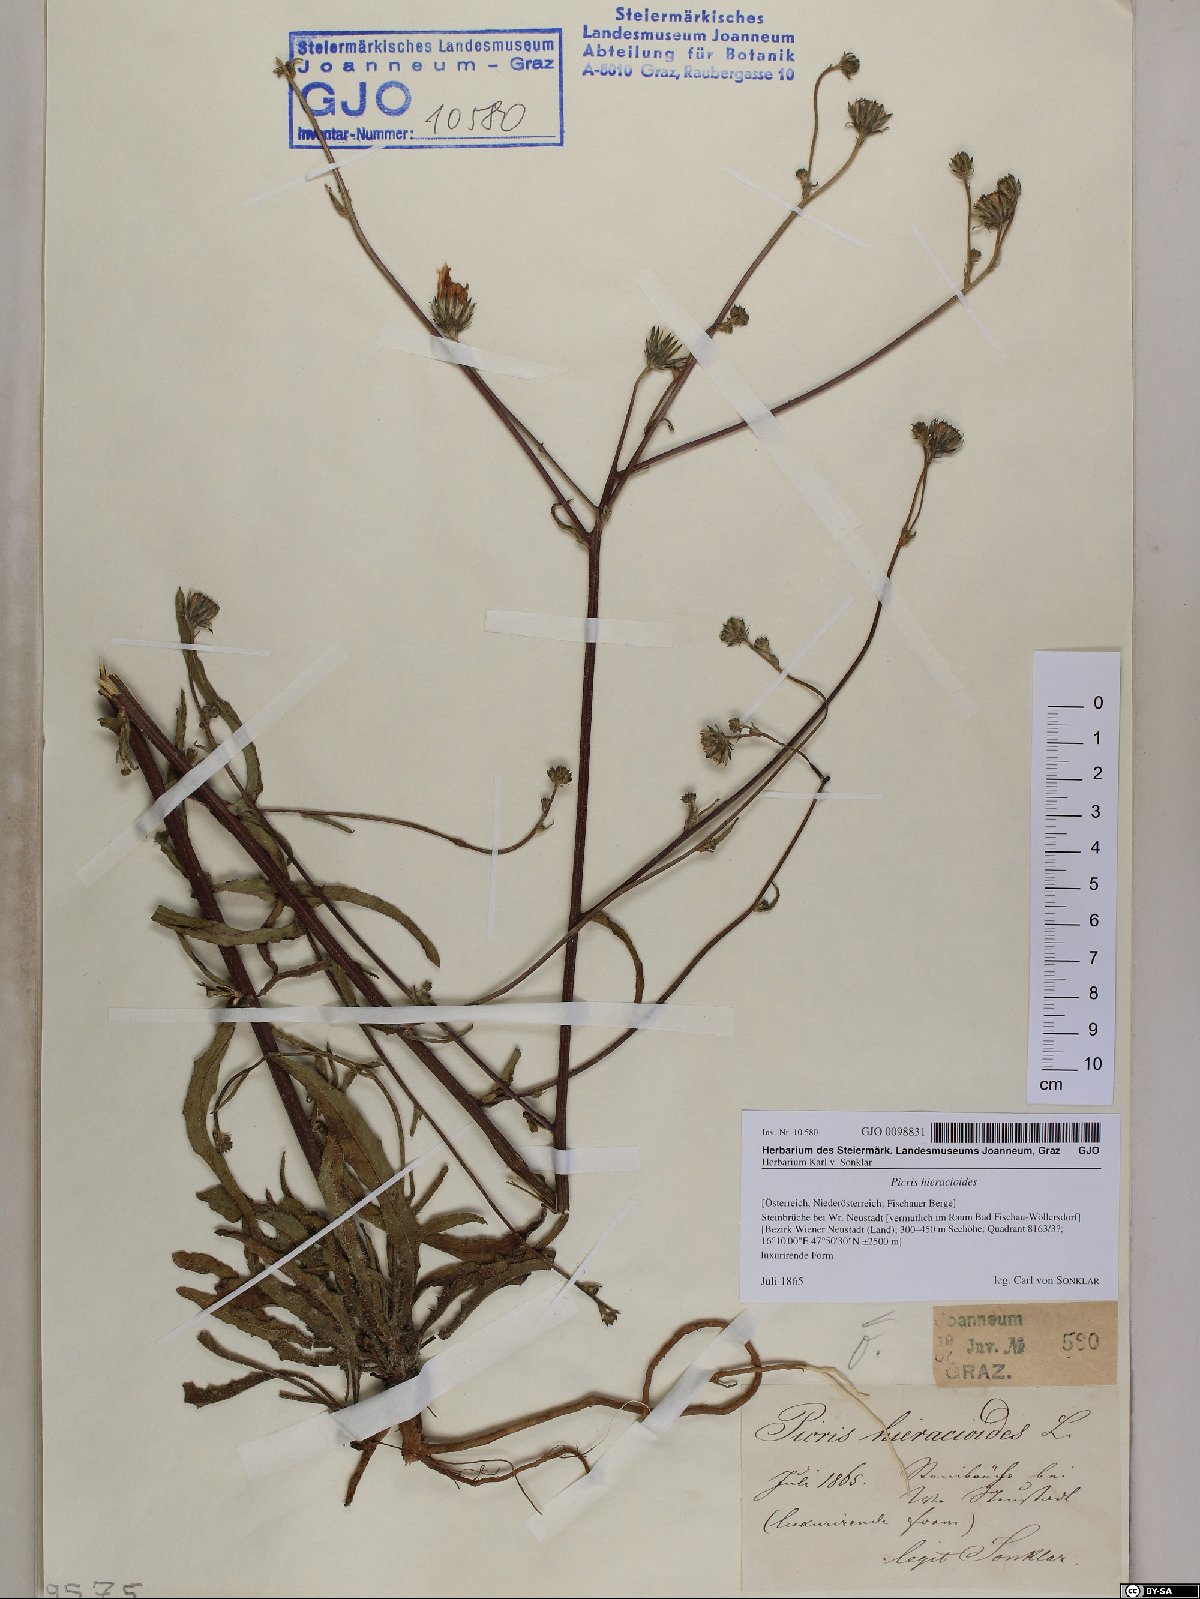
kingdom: Plantae
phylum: Tracheophyta
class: Magnoliopsida
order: Asterales
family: Asteraceae
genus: Picris
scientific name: Picris hieracioides
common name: Hawkweed oxtongue
